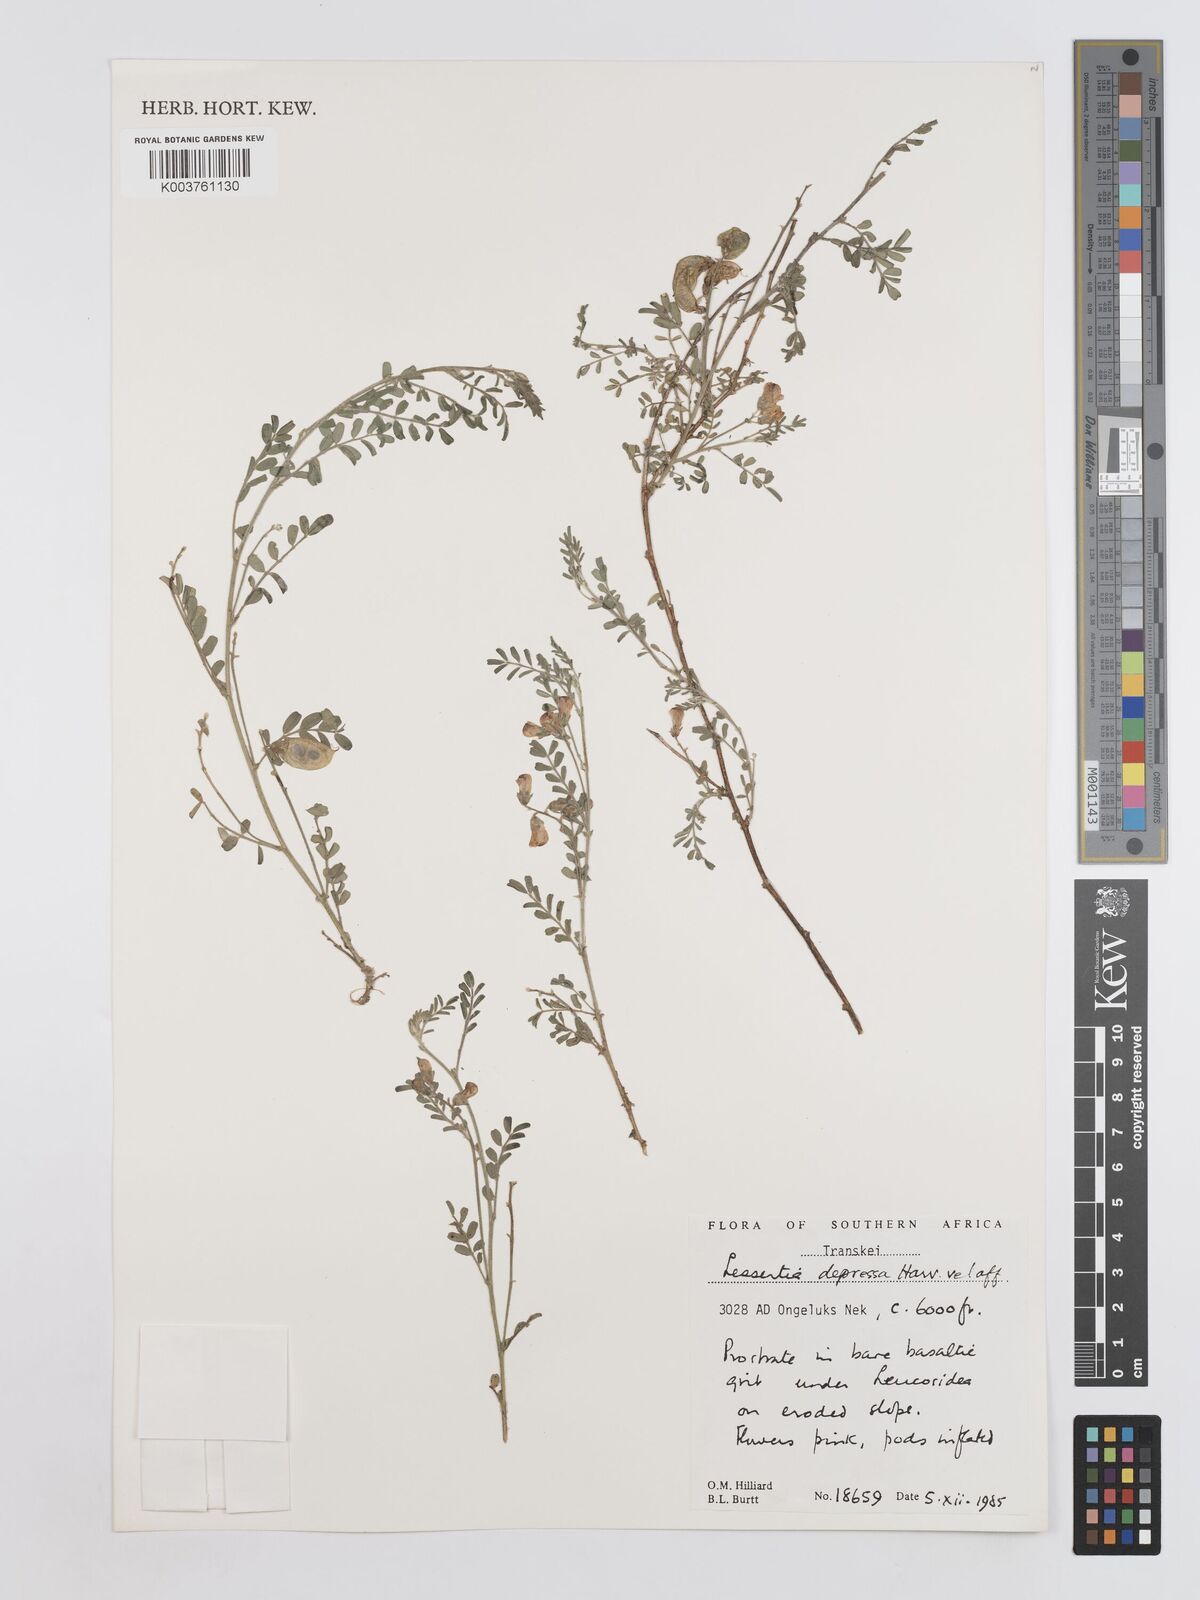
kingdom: Plantae
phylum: Tracheophyta
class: Magnoliopsida
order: Fabales
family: Fabaceae
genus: Lessertia
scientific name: Lessertia depressa
